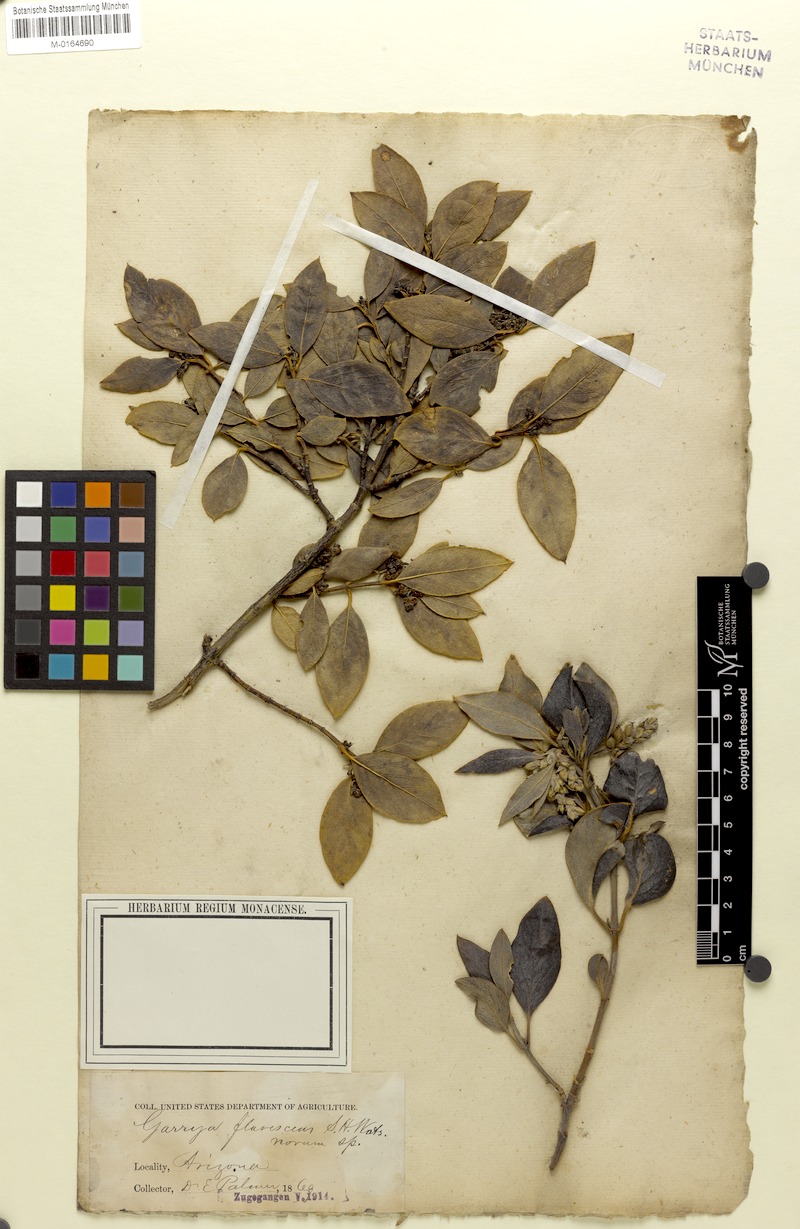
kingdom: Plantae
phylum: Tracheophyta
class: Magnoliopsida
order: Garryales
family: Garryaceae
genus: Garrya
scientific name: Garrya veatchii
